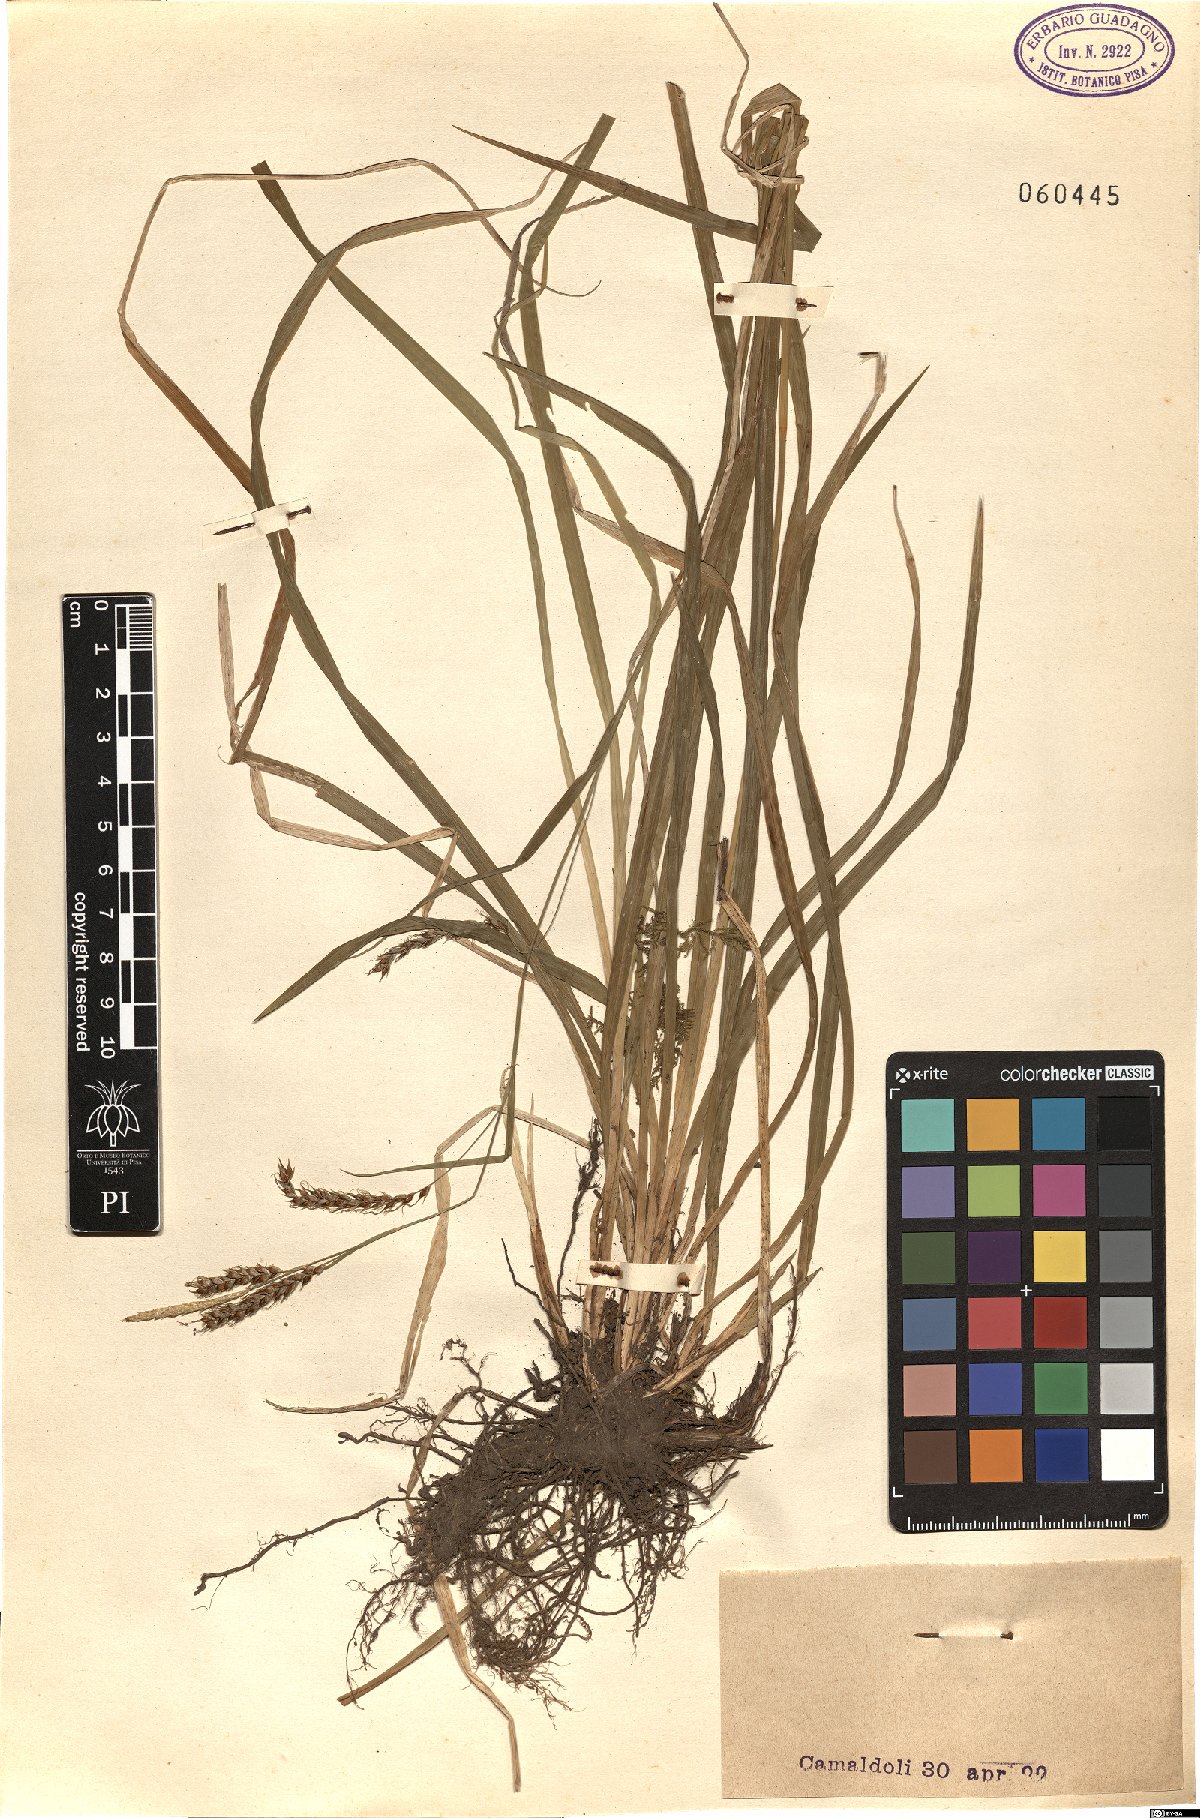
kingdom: Plantae
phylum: Tracheophyta
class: Liliopsida
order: Poales
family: Cyperaceae
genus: Carex
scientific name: Carex
